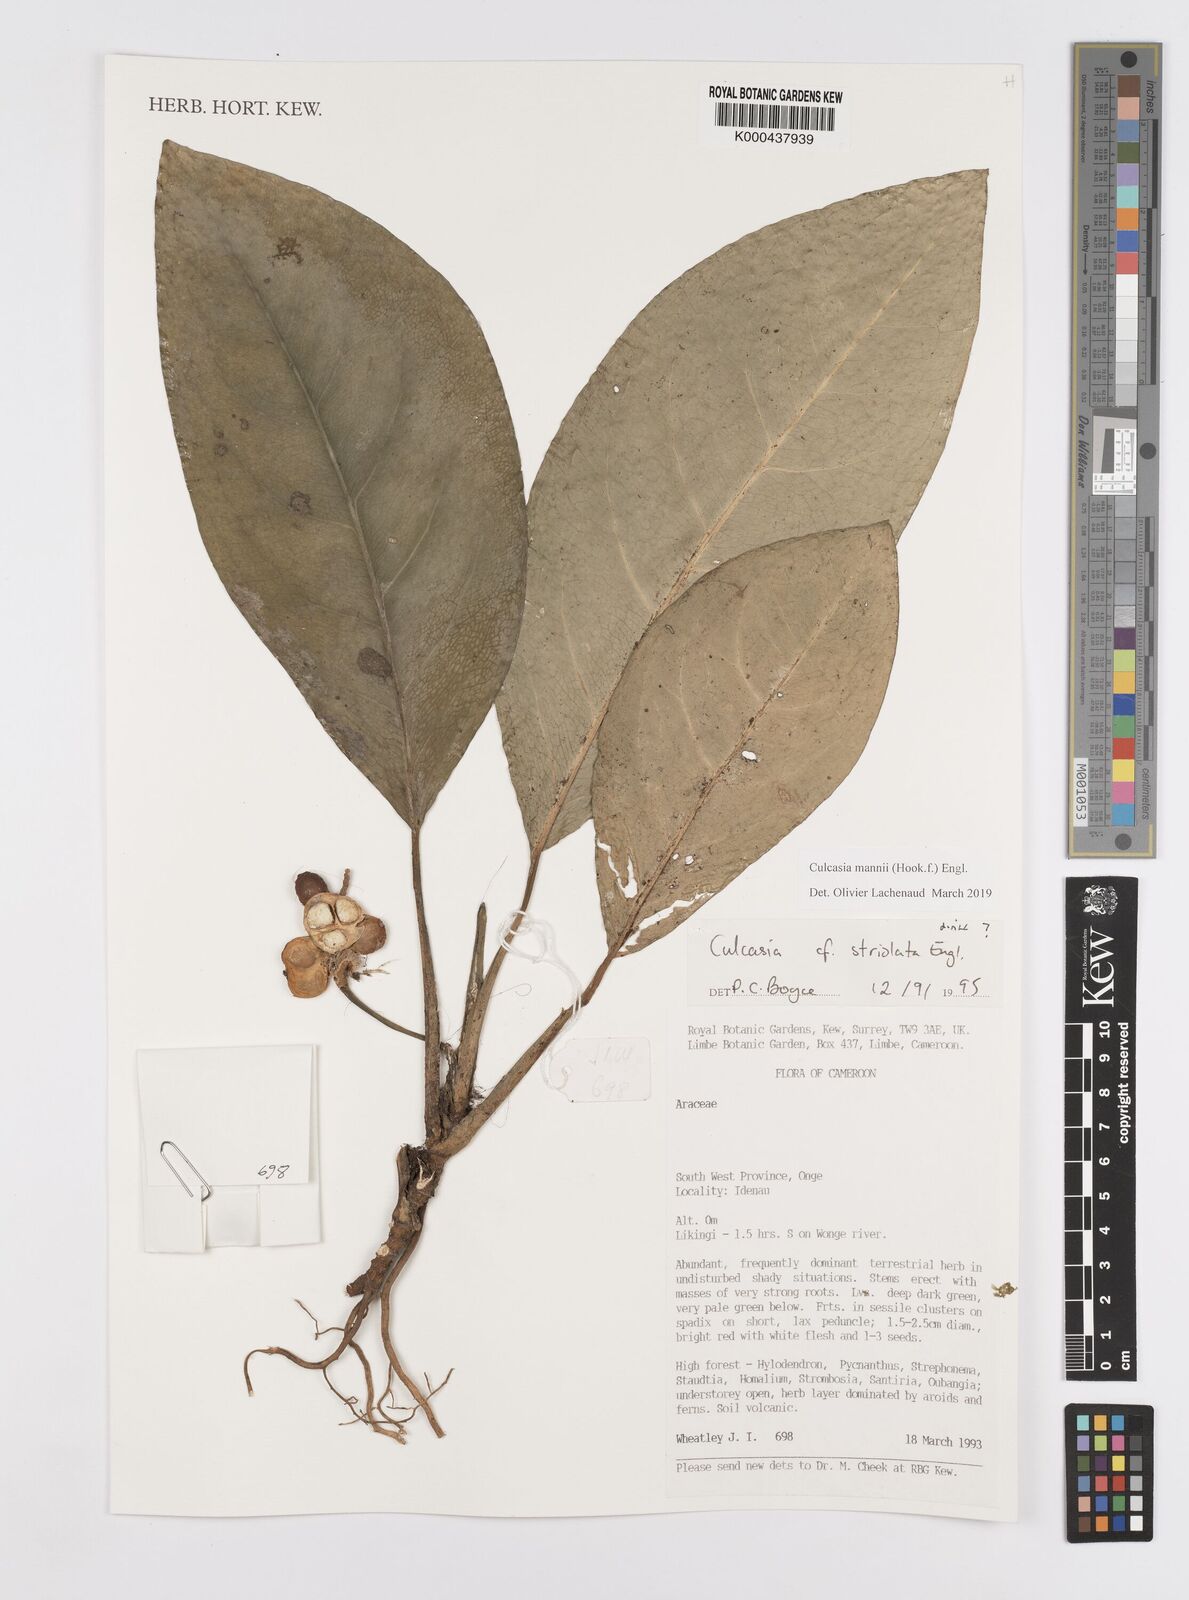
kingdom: Plantae
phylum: Tracheophyta
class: Liliopsida
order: Alismatales
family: Araceae
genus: Culcasia
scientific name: Culcasia mannii
